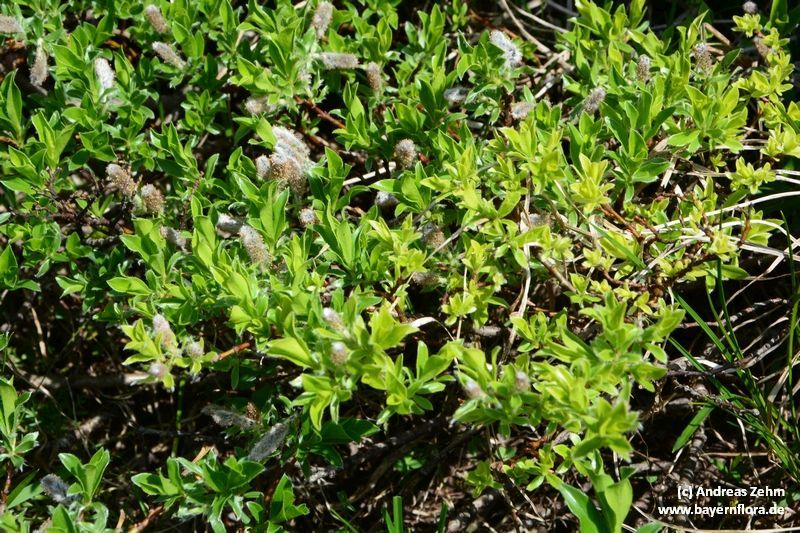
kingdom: Plantae
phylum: Tracheophyta
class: Magnoliopsida
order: Malpighiales
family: Salicaceae
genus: Salix
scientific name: Salix alpina
